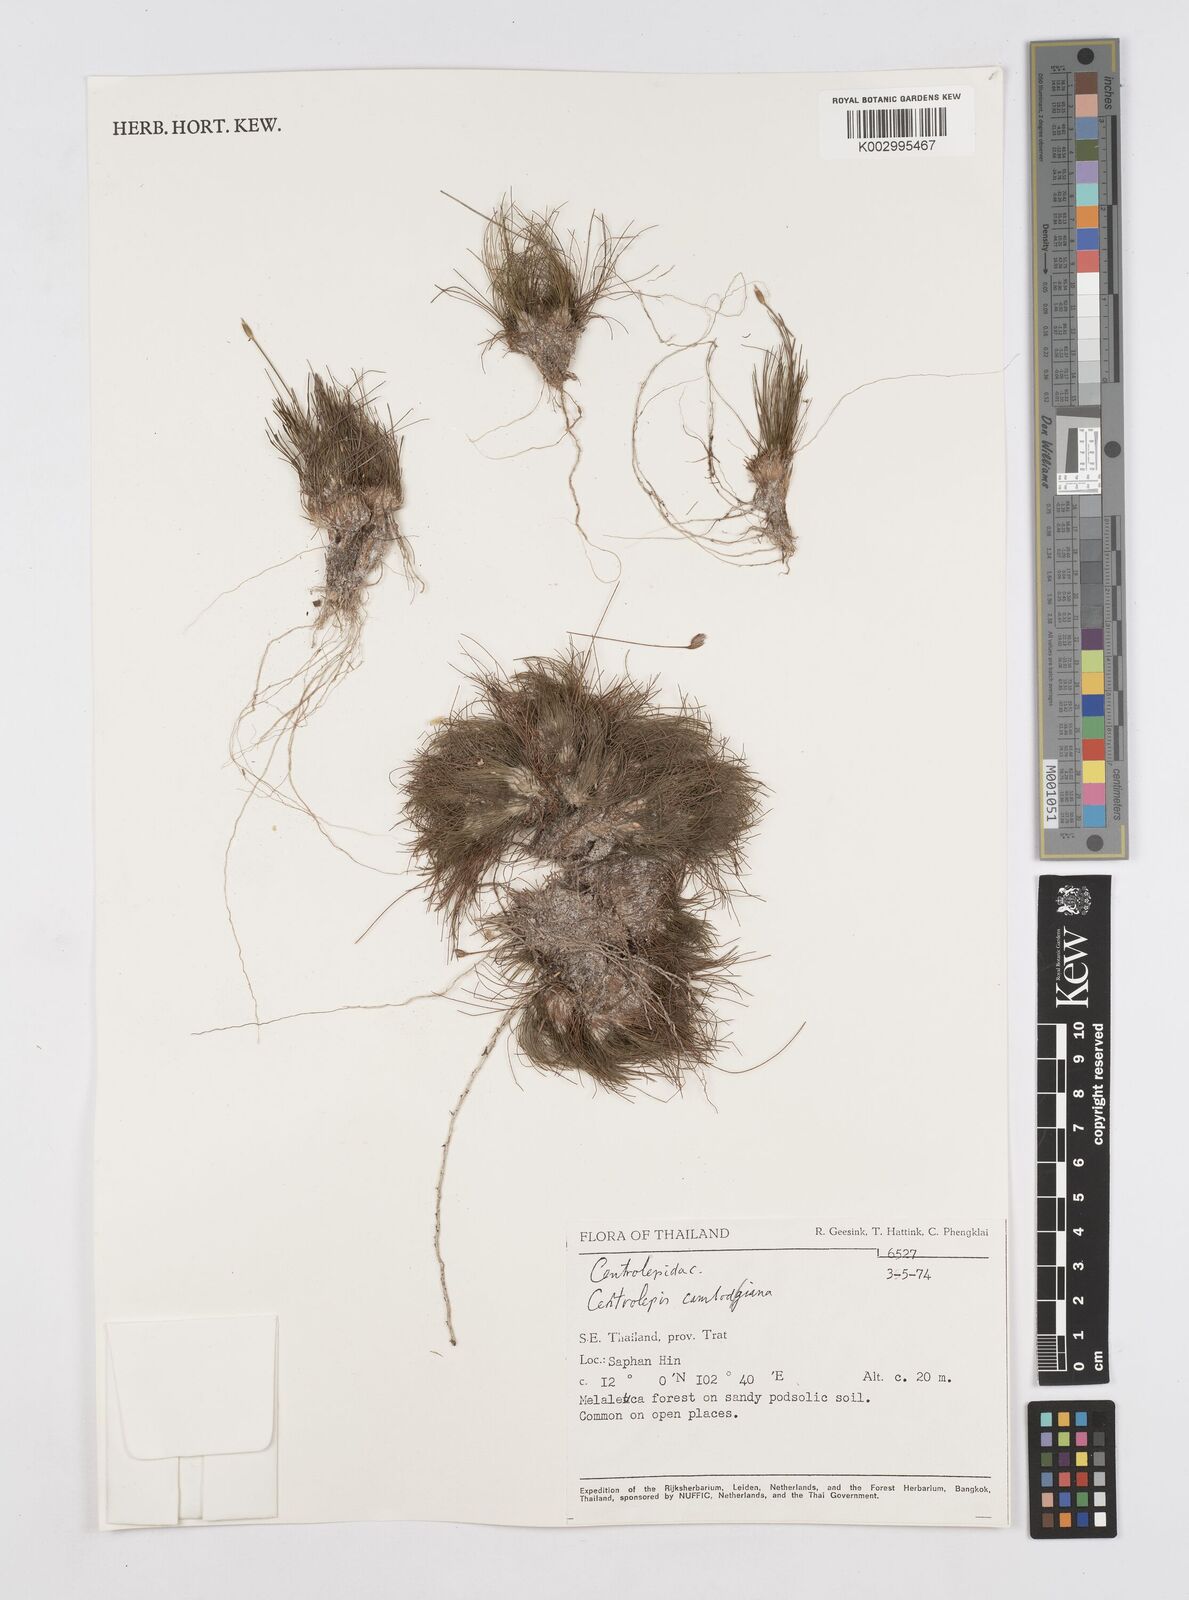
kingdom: Plantae
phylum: Tracheophyta
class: Liliopsida
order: Poales
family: Restionaceae
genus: Centrolepis
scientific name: Centrolepis cambodiana
